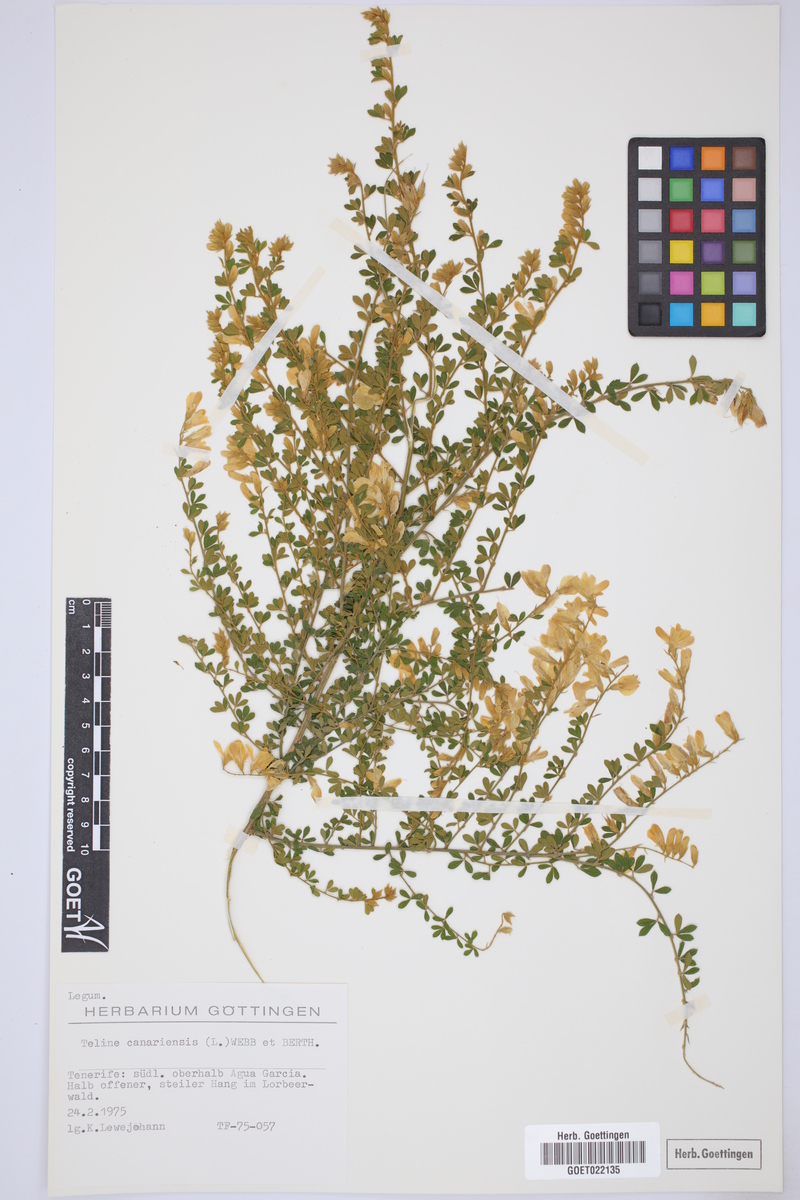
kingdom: Plantae
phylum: Tracheophyta
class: Magnoliopsida
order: Fabales
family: Fabaceae
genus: Genista
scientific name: Genista canariensis
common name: Canary broom
